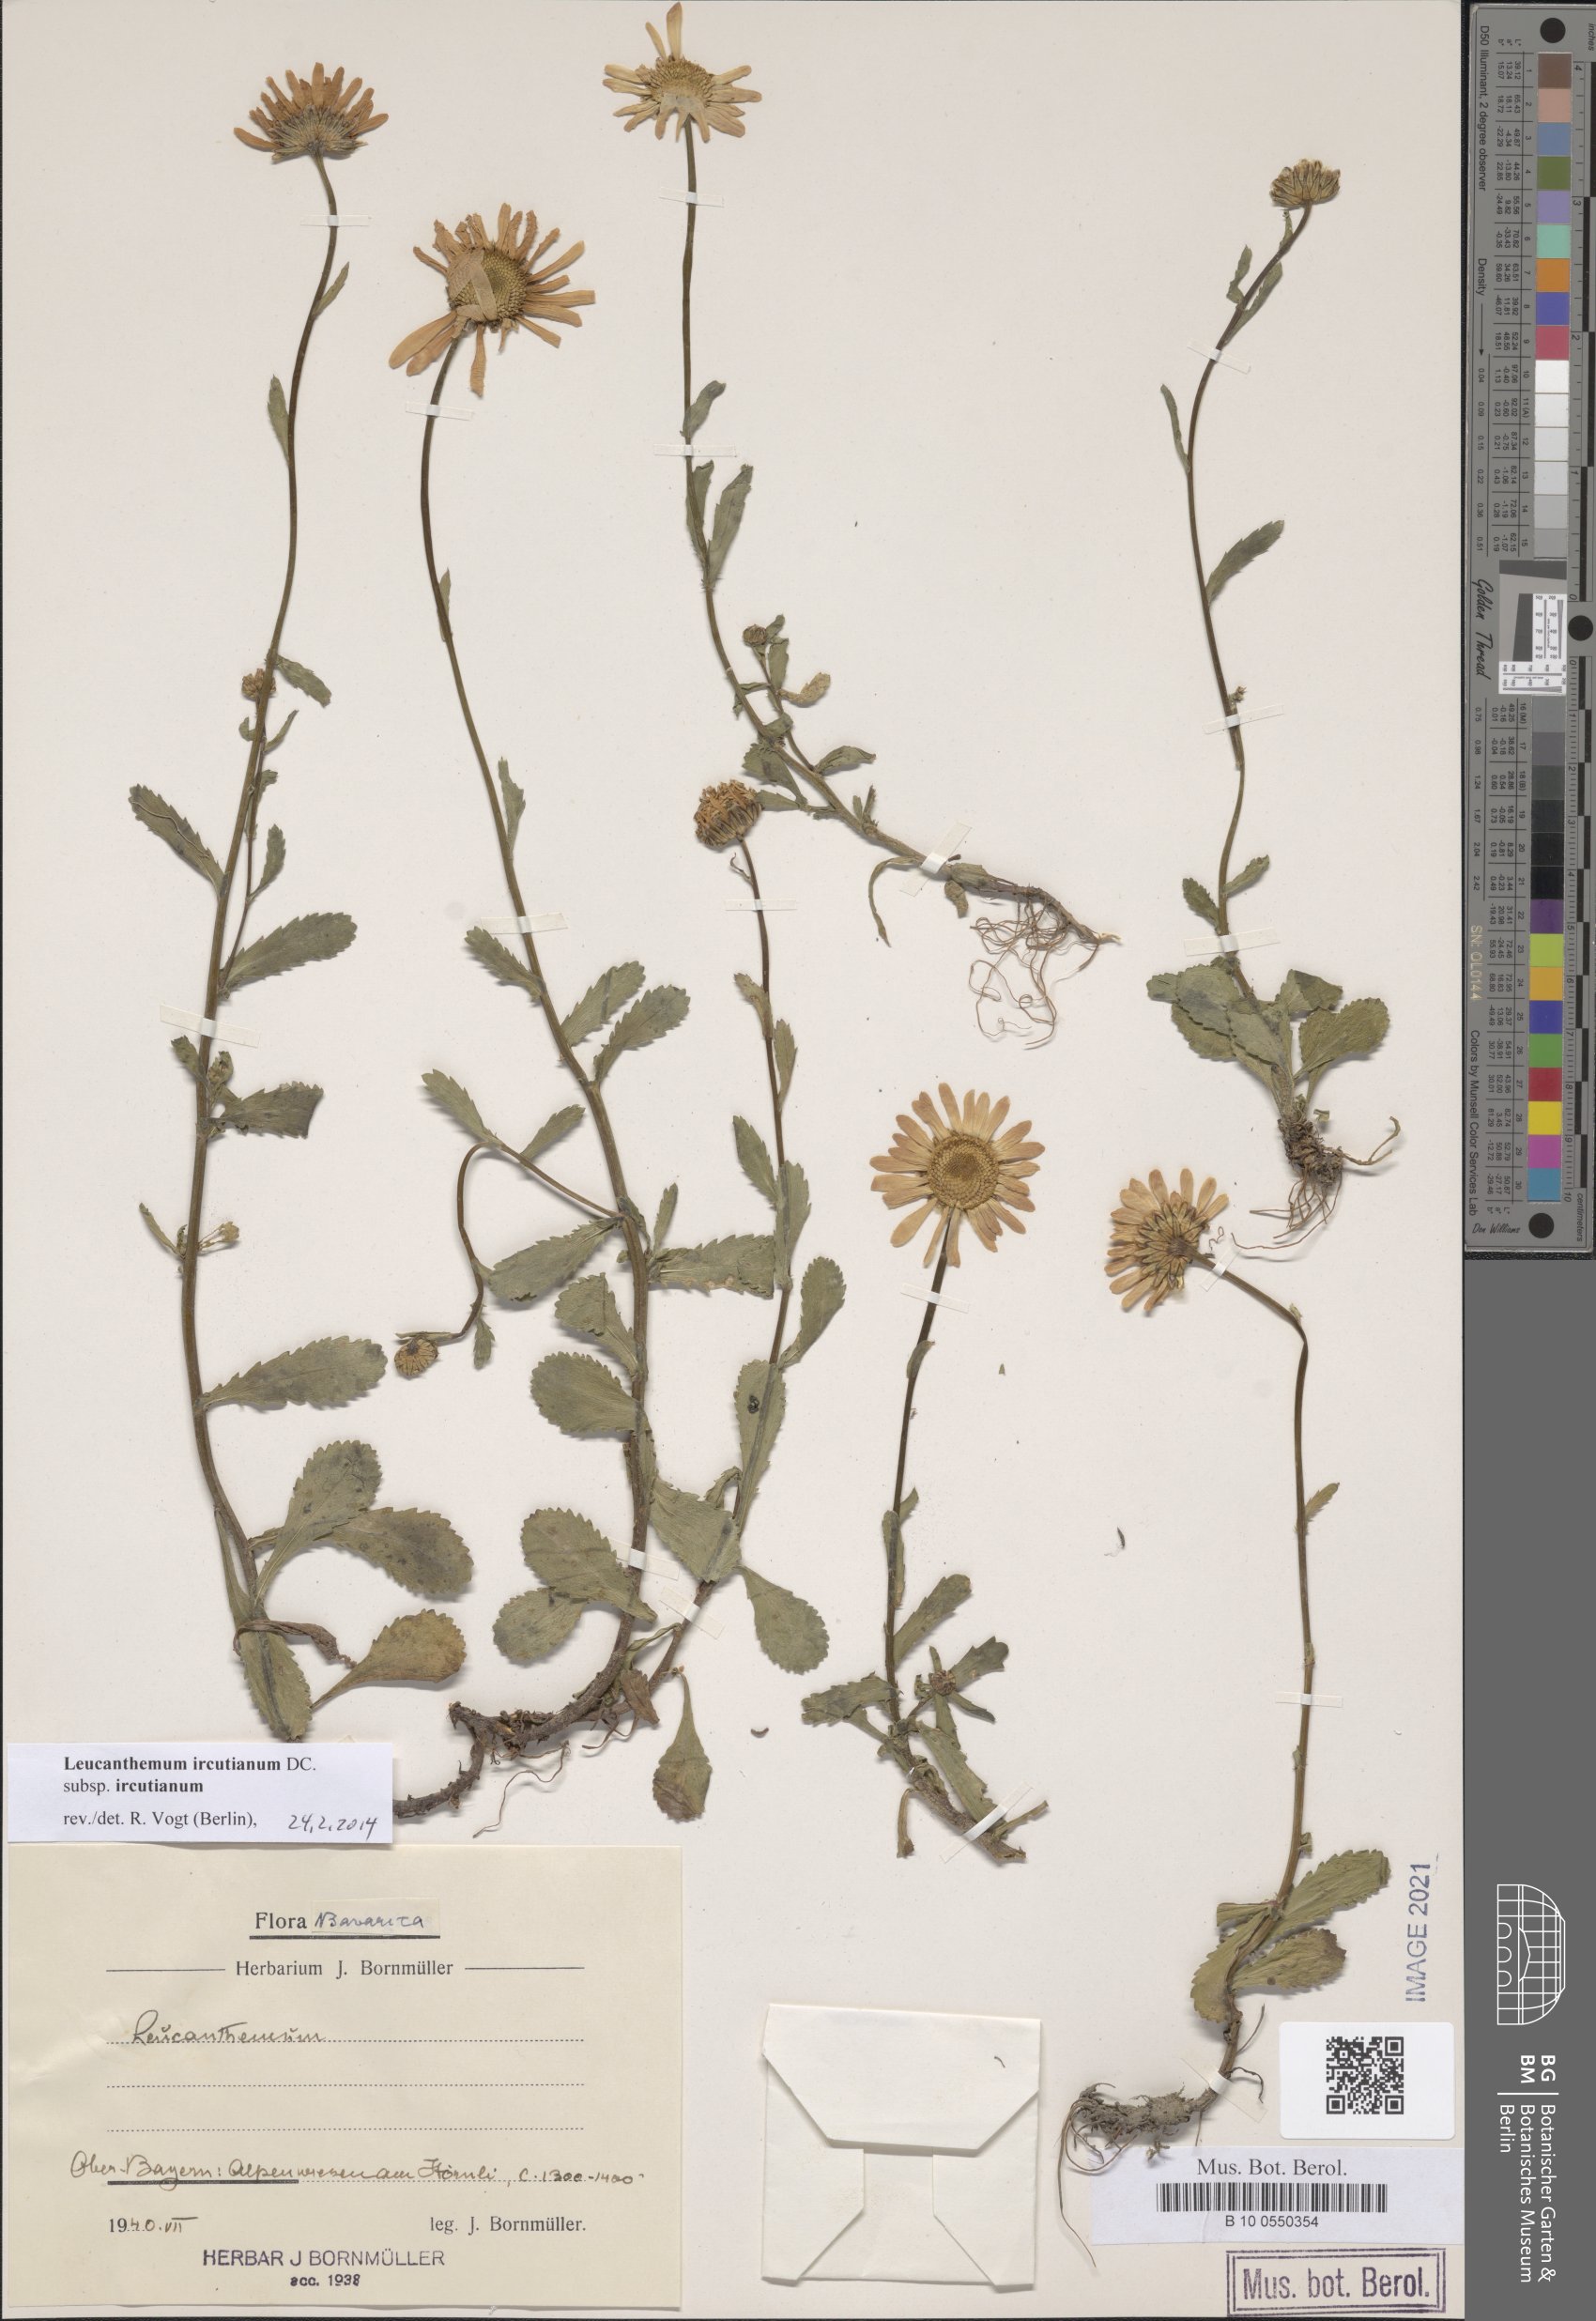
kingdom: Plantae
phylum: Tracheophyta
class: Magnoliopsida
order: Asterales
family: Asteraceae
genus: Leucanthemum
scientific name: Leucanthemum ircutianum
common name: Daisy
